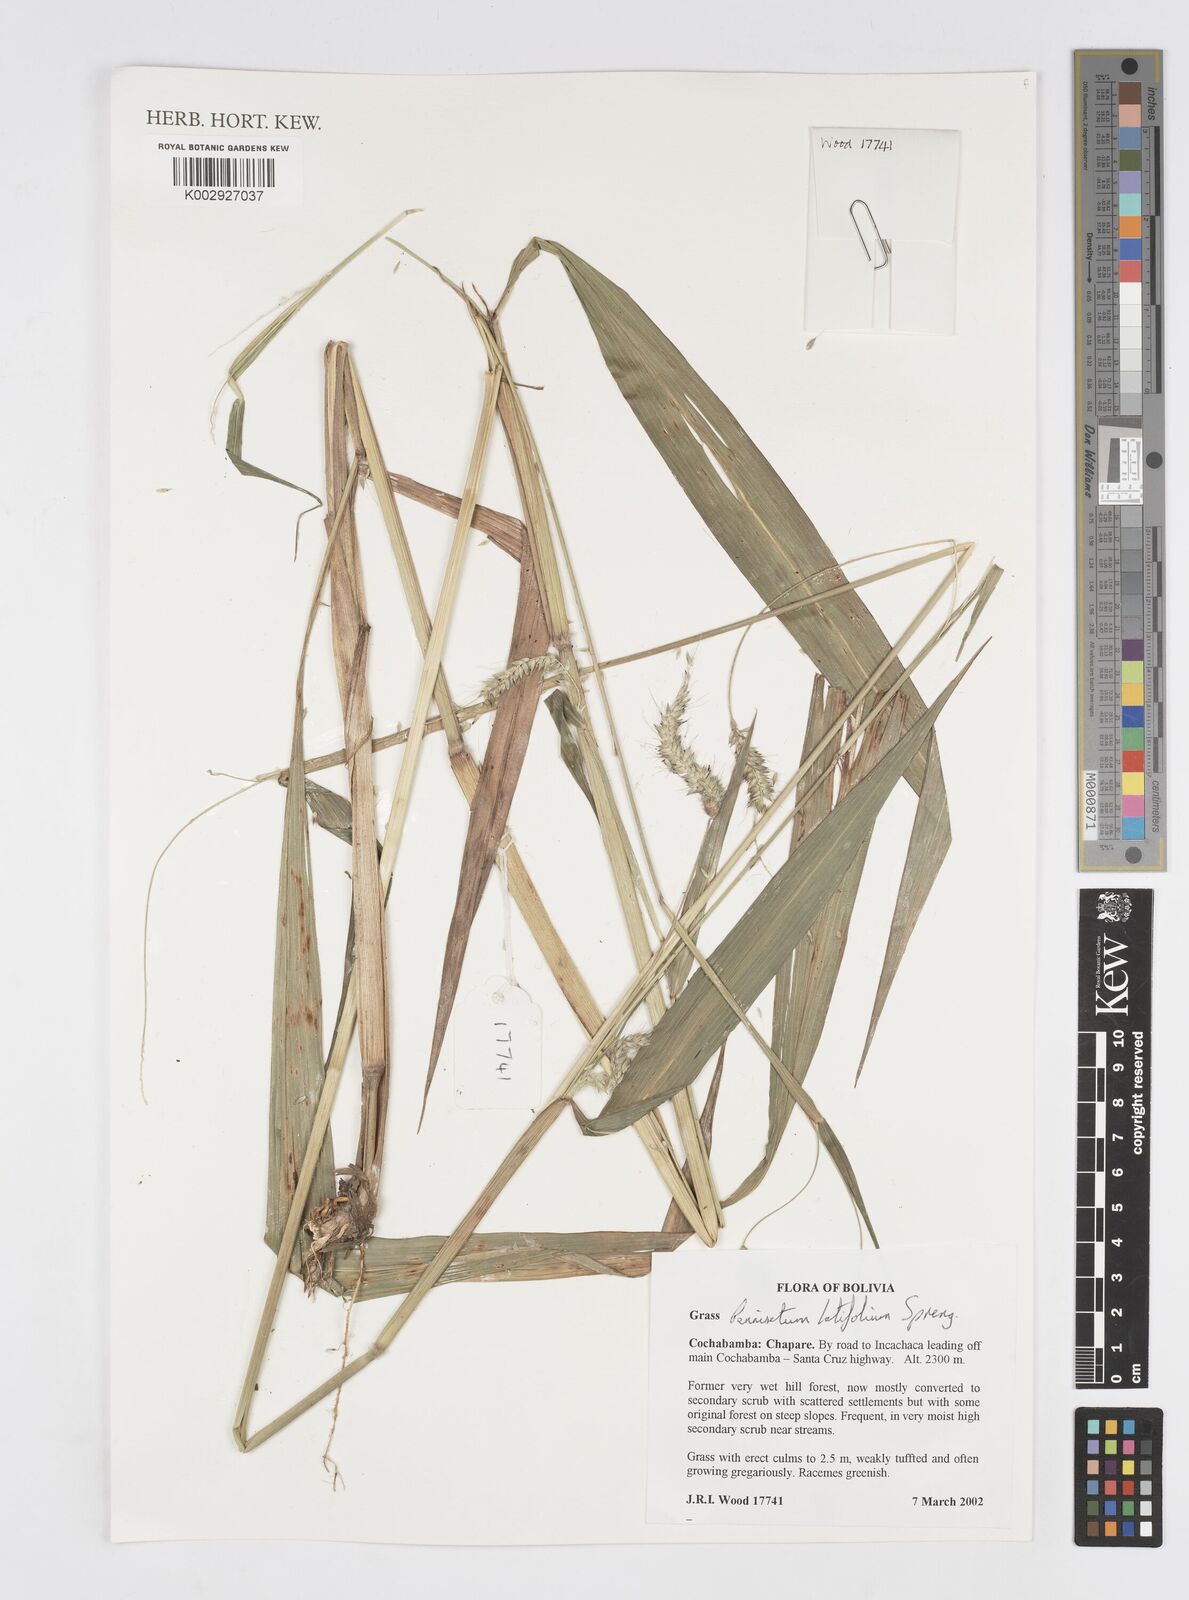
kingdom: Plantae
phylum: Tracheophyta
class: Liliopsida
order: Poales
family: Poaceae
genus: Cenchrus
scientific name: Cenchrus latifolius
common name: Sandbur
